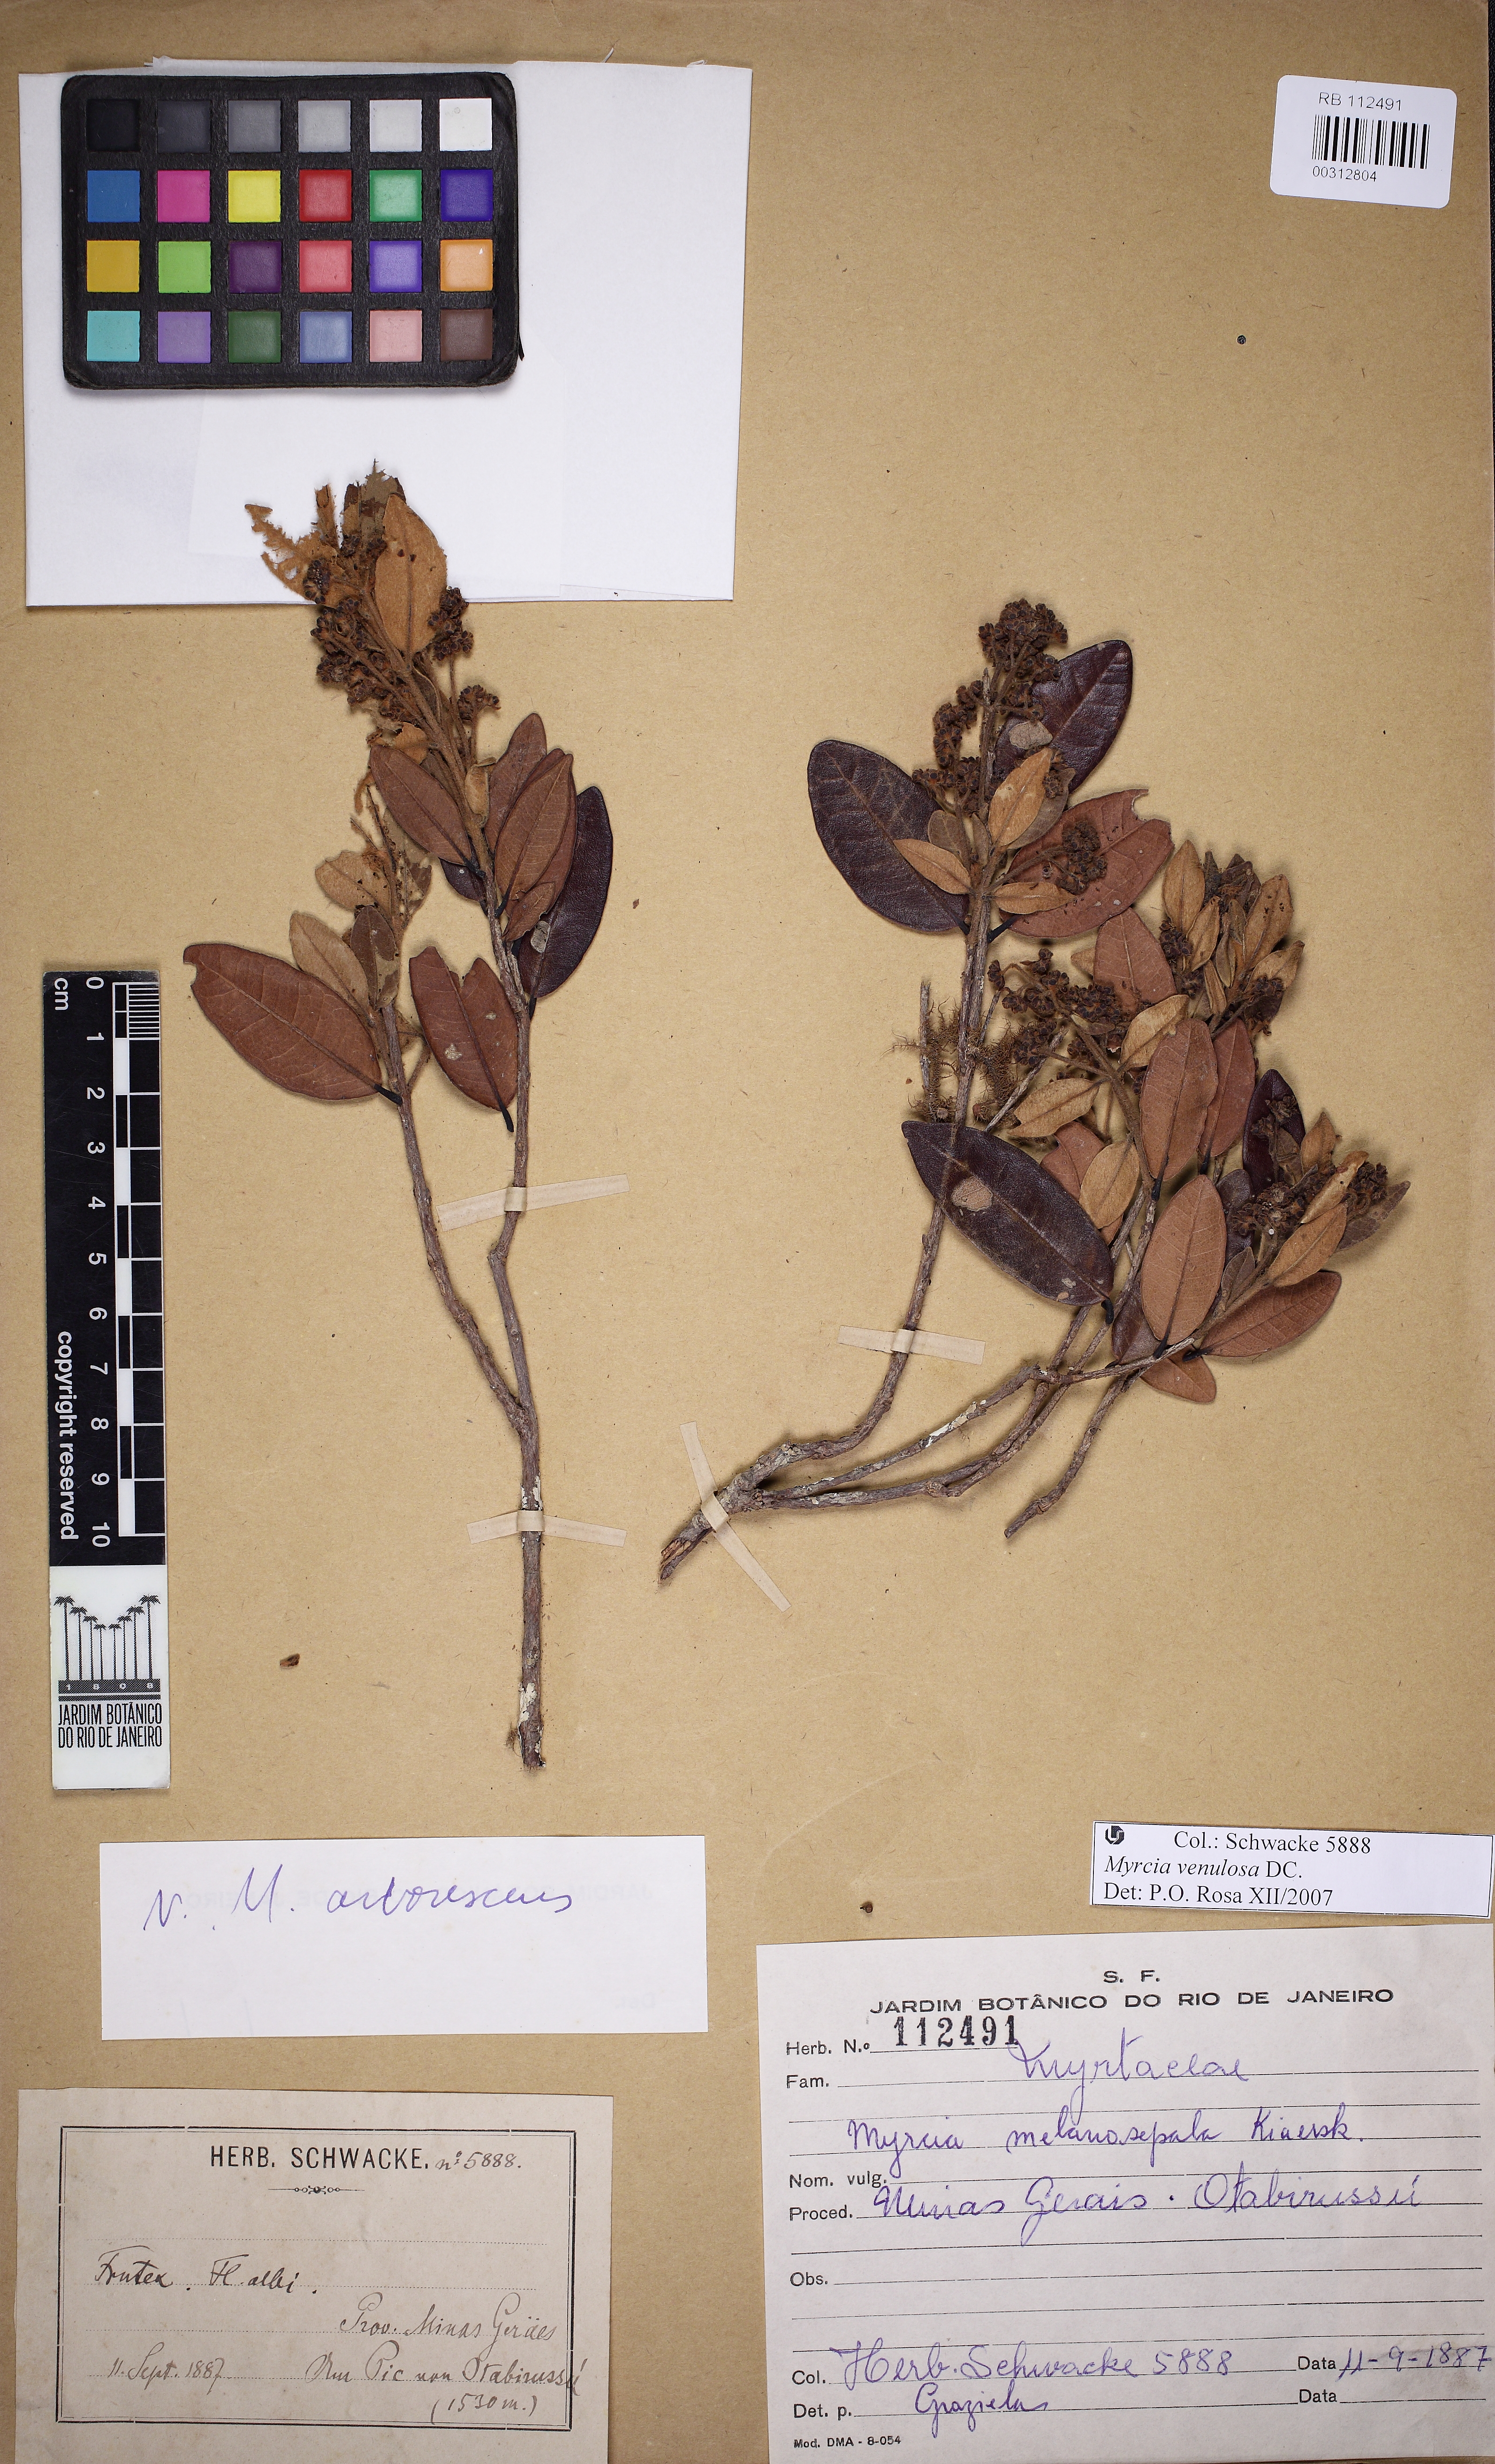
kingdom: Plantae
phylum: Tracheophyta
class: Magnoliopsida
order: Myrtales
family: Myrtaceae
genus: Myrcia
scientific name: Myrcia venulosa
